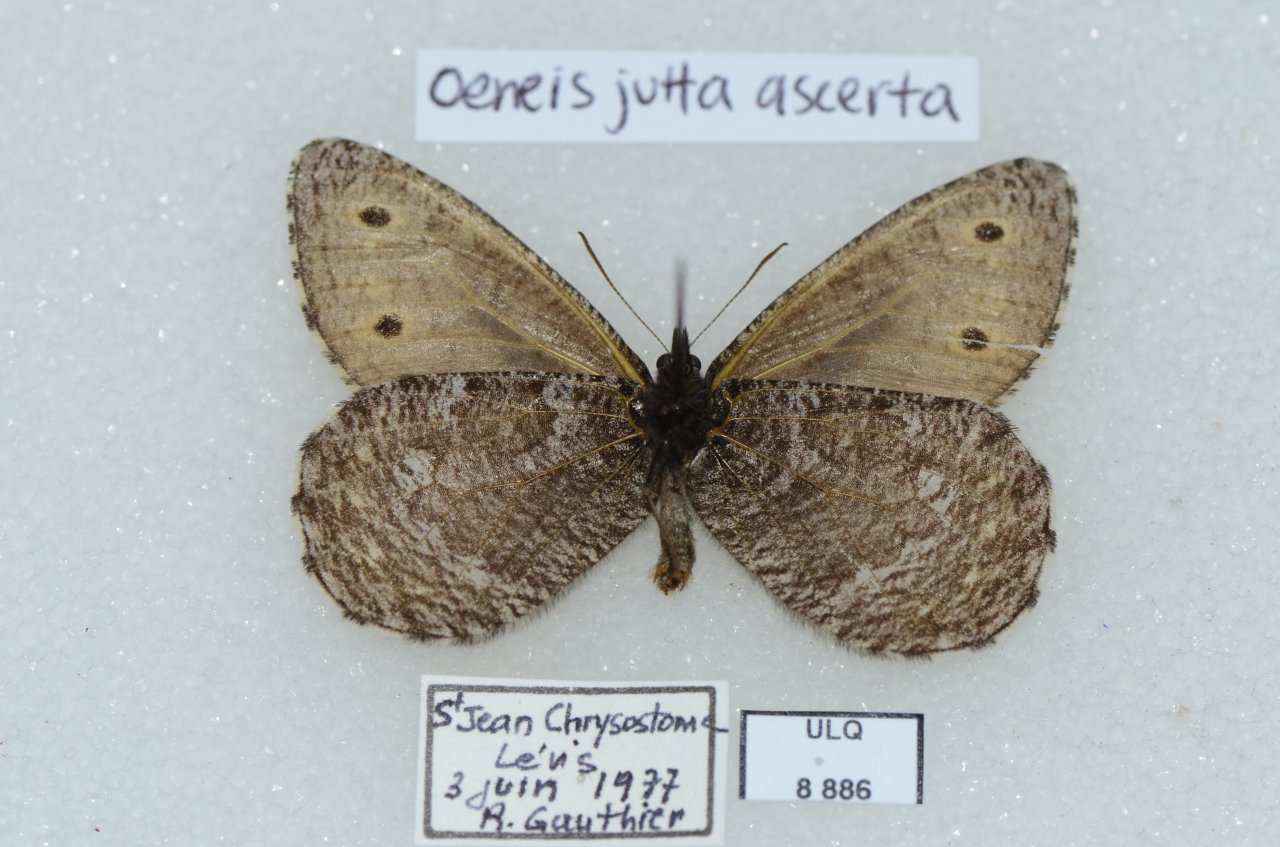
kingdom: Animalia
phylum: Arthropoda
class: Insecta
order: Lepidoptera
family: Nymphalidae
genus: Oeneis
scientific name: Oeneis jutta
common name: Jutta Arctic
